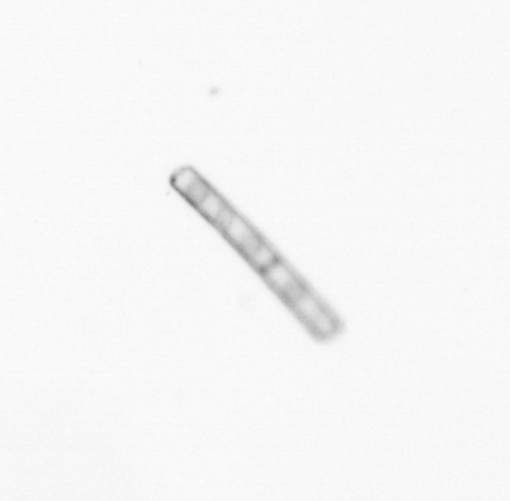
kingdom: Chromista
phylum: Ochrophyta
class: Bacillariophyceae
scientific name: Bacillariophyceae
